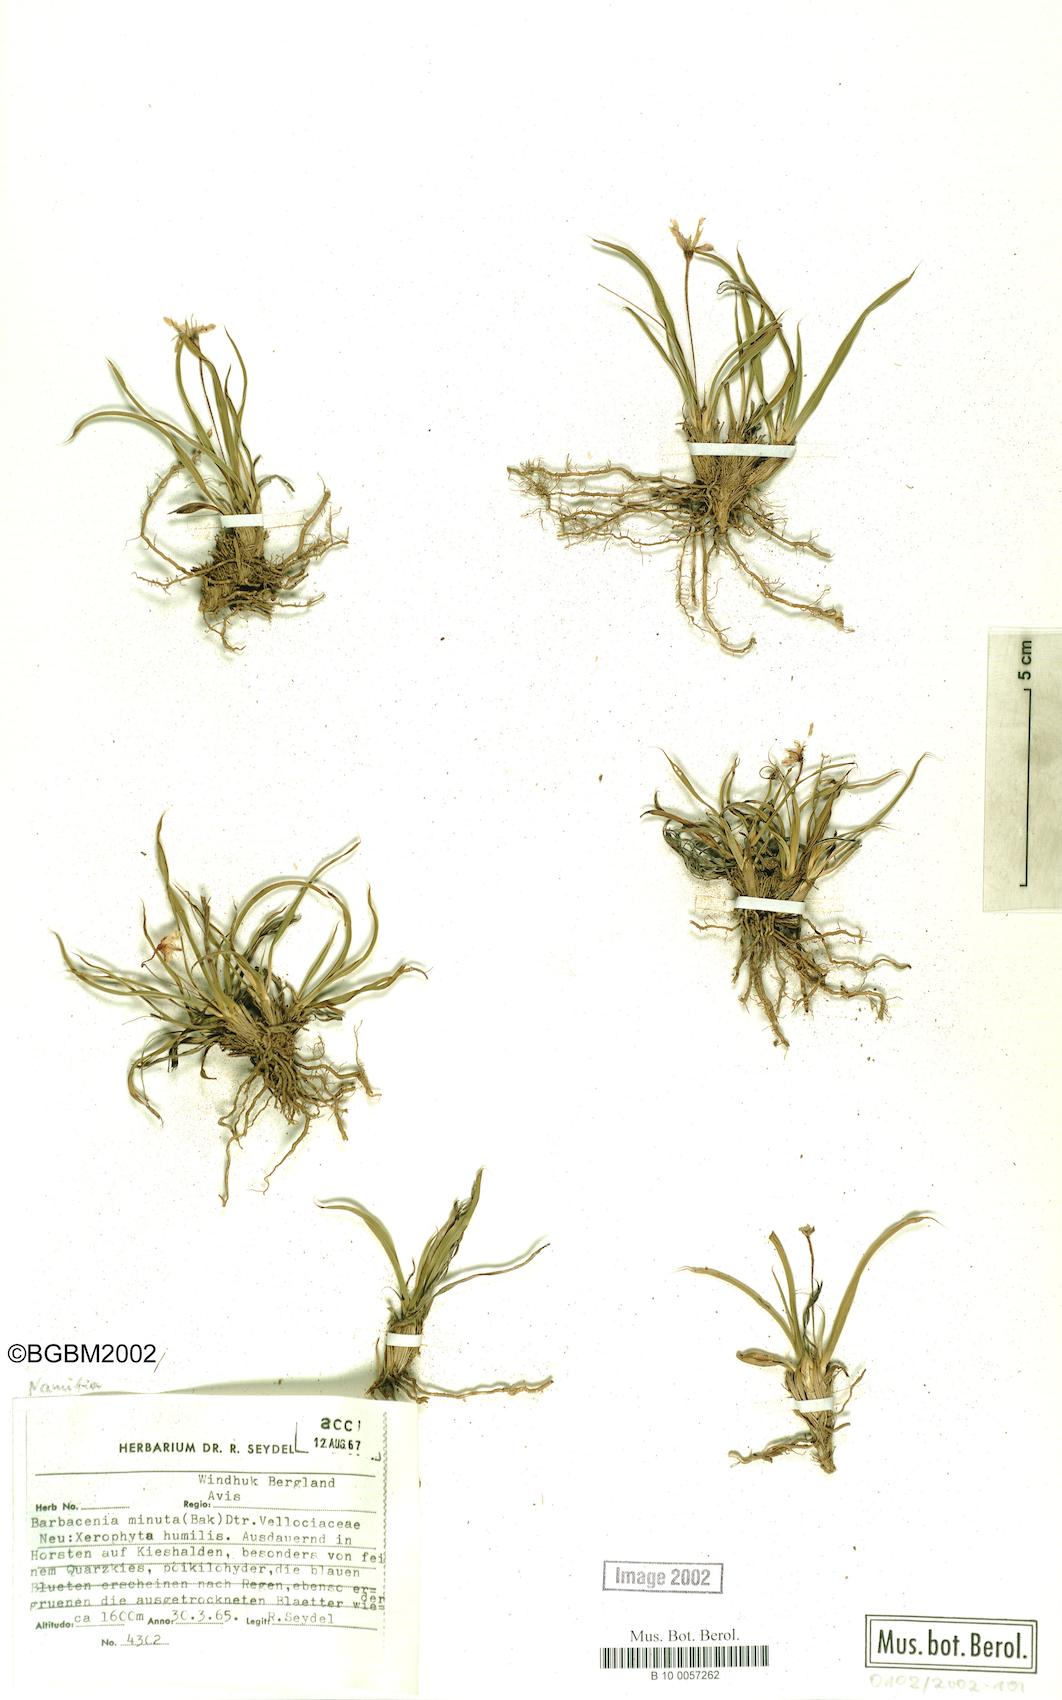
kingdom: Plantae
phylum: Tracheophyta
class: Liliopsida
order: Pandanales
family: Velloziaceae
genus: Xerophyta
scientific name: Xerophyta elegans
